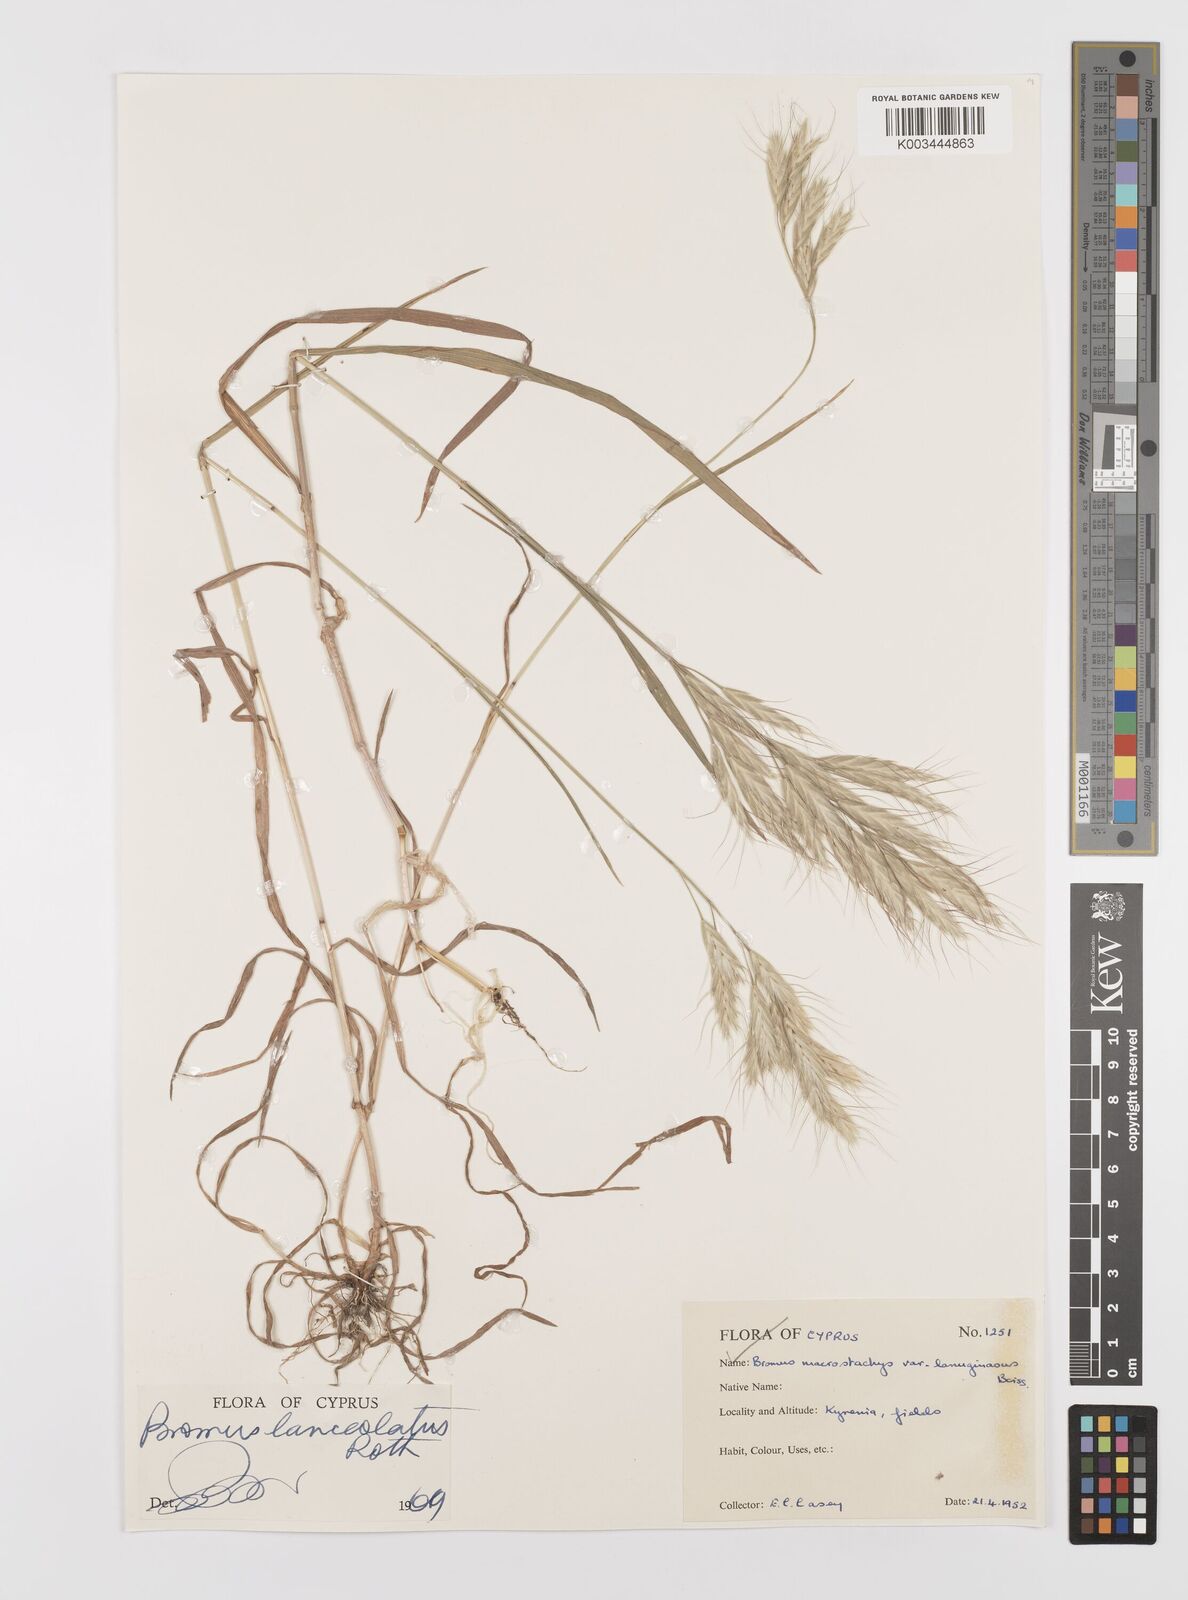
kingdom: Plantae
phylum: Tracheophyta
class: Liliopsida
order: Poales
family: Poaceae
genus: Bromus
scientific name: Bromus lanceolatus
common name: Mediterranean brome
